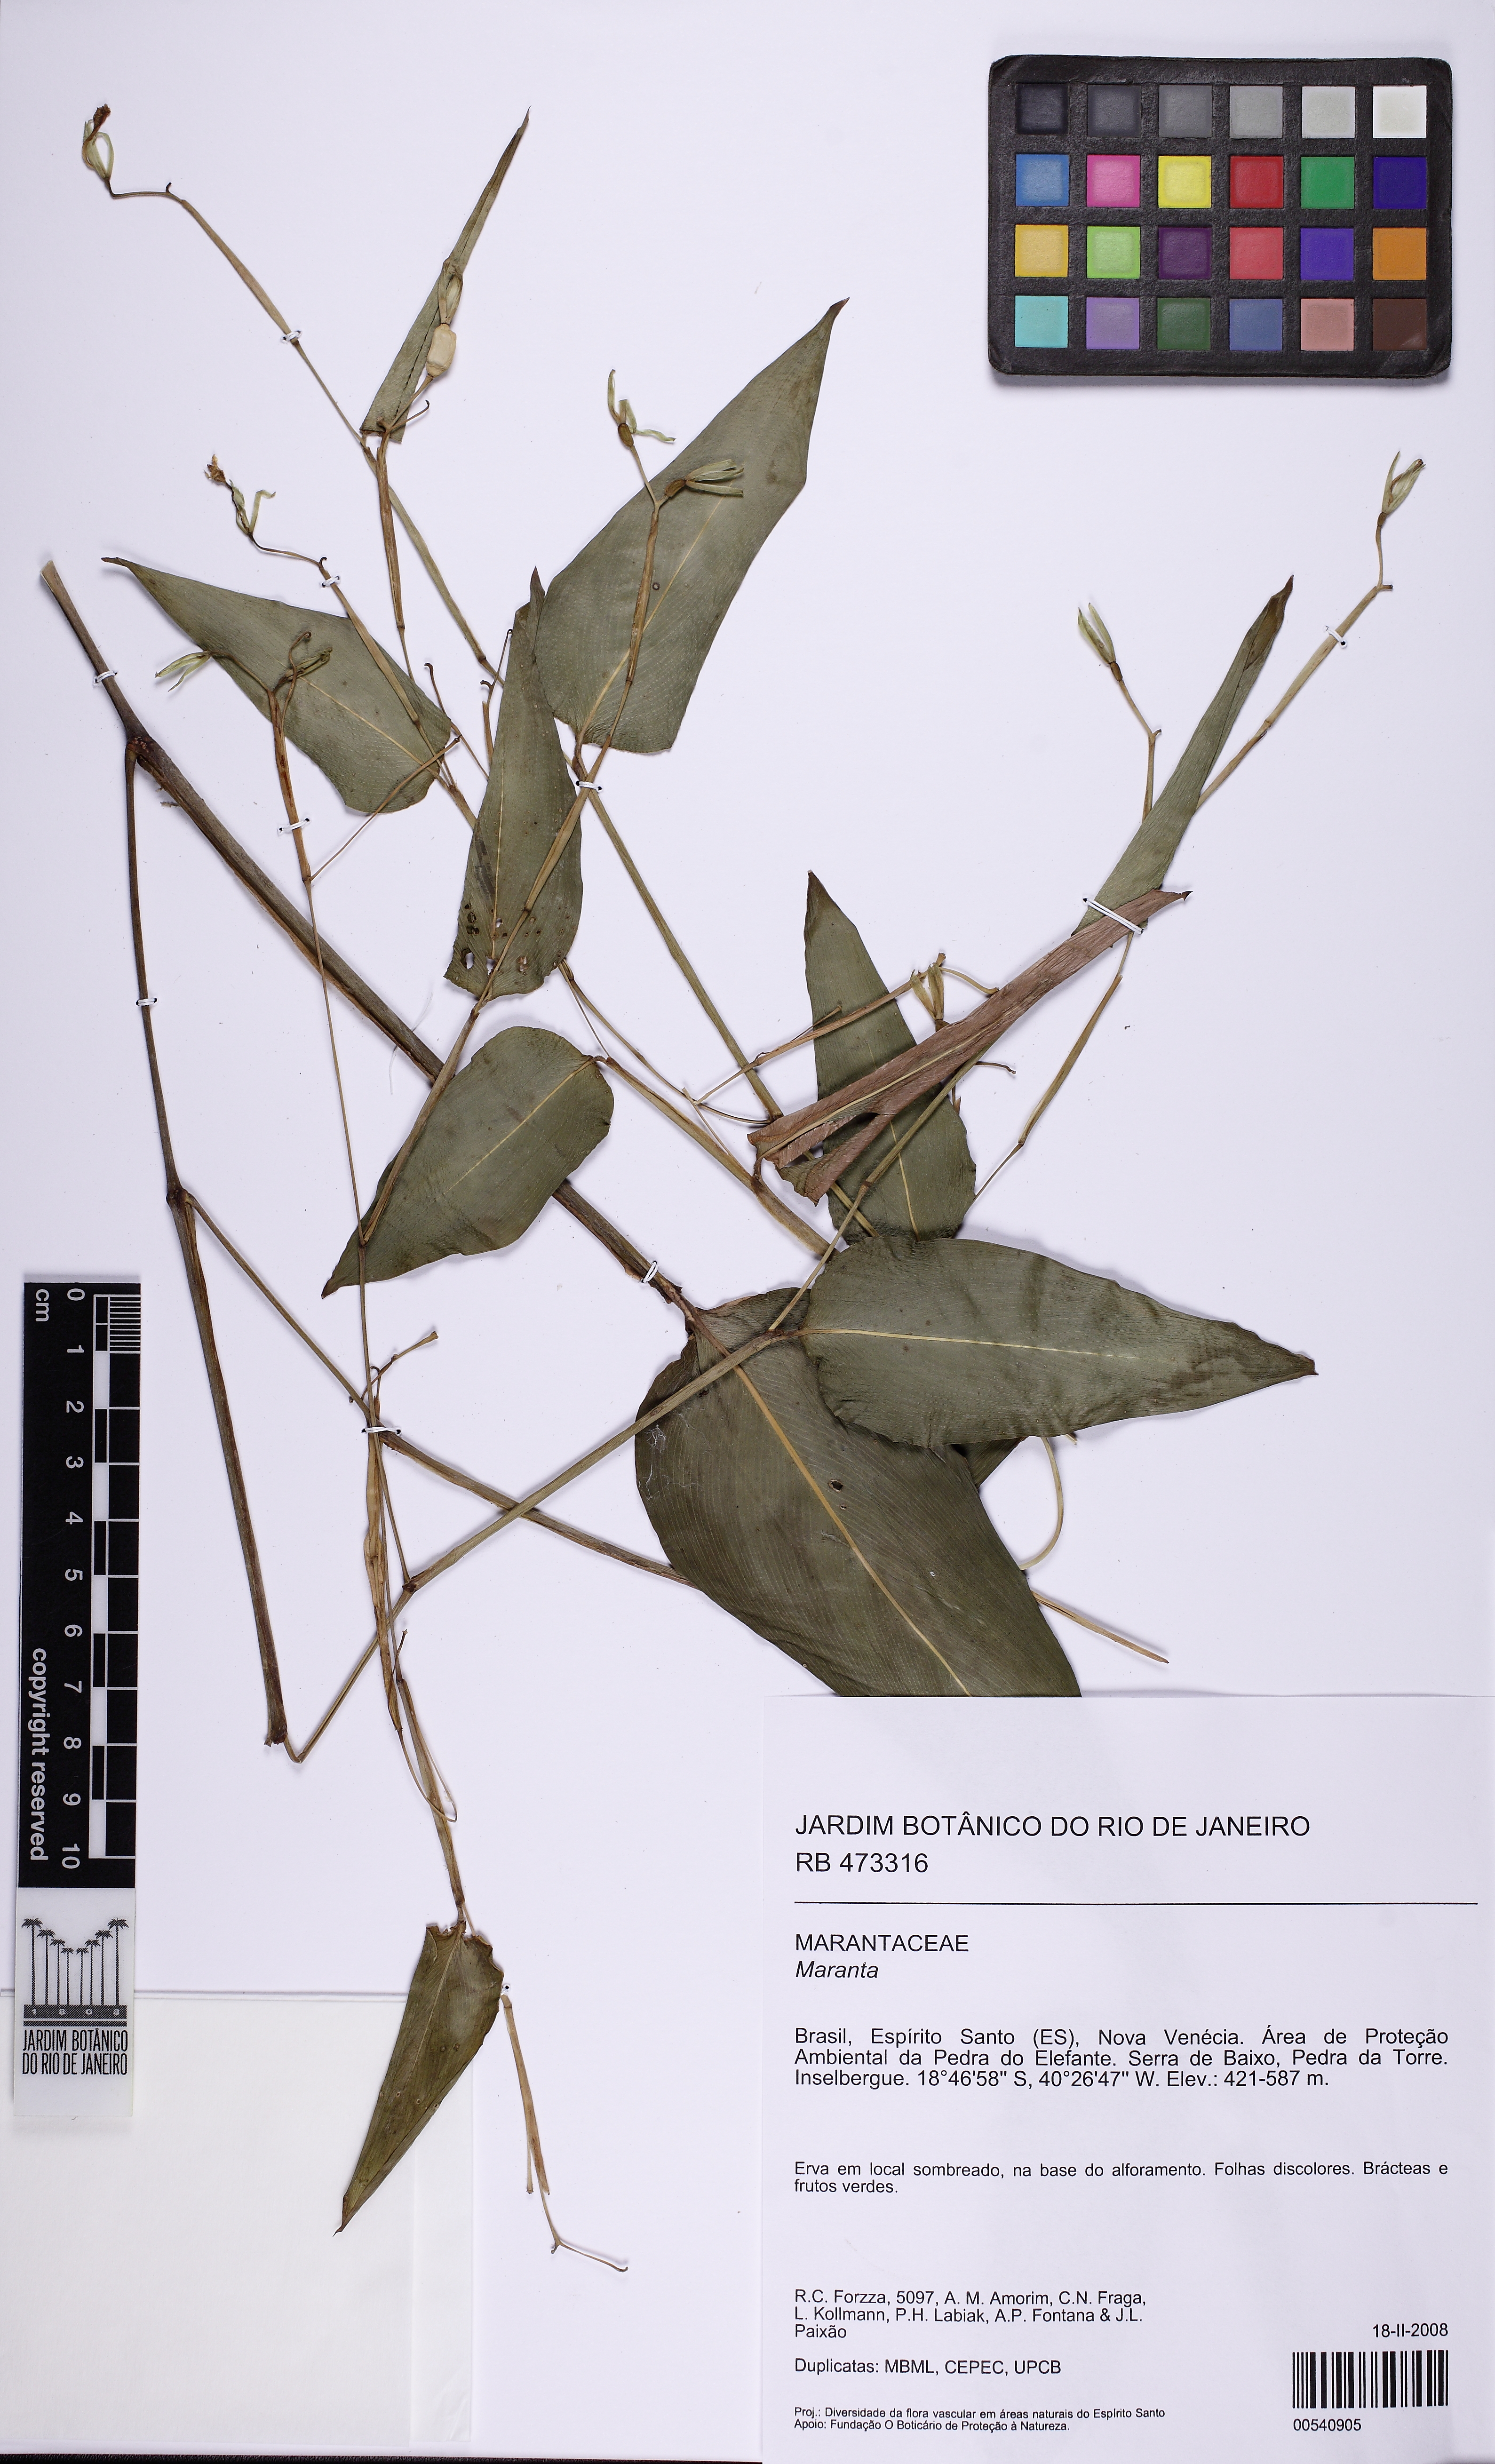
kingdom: Plantae
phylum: Tracheophyta
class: Liliopsida
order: Zingiberales
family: Marantaceae
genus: Maranta
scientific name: Maranta divaricata
